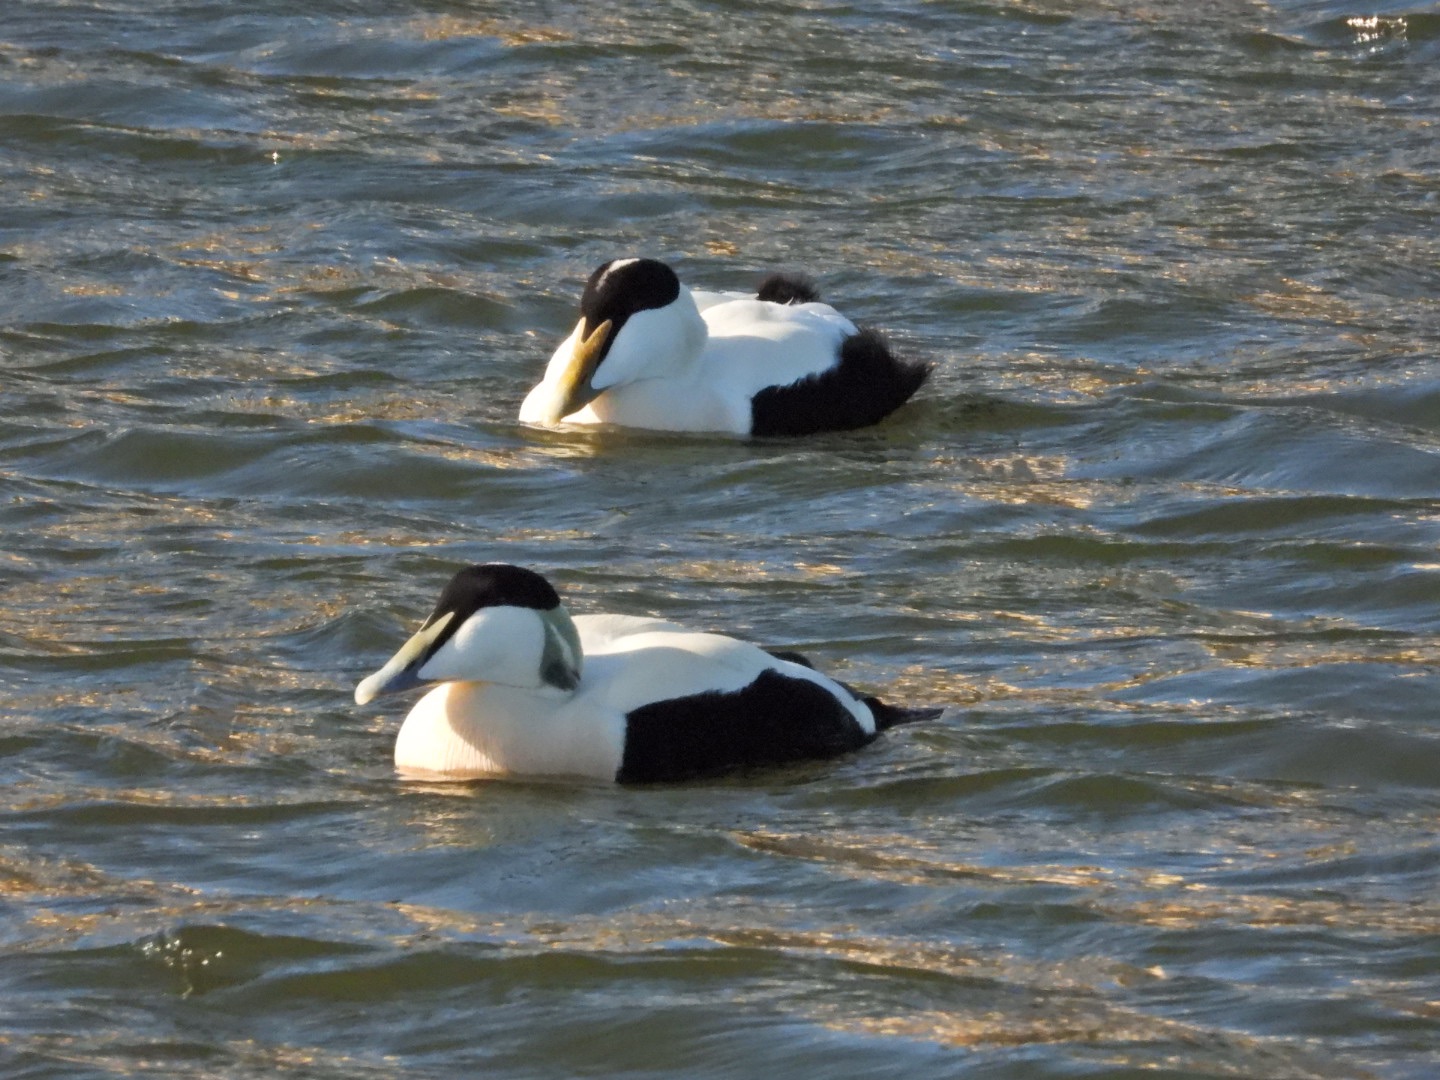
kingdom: Animalia
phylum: Chordata
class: Aves
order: Anseriformes
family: Anatidae
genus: Somateria
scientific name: Somateria mollissima
